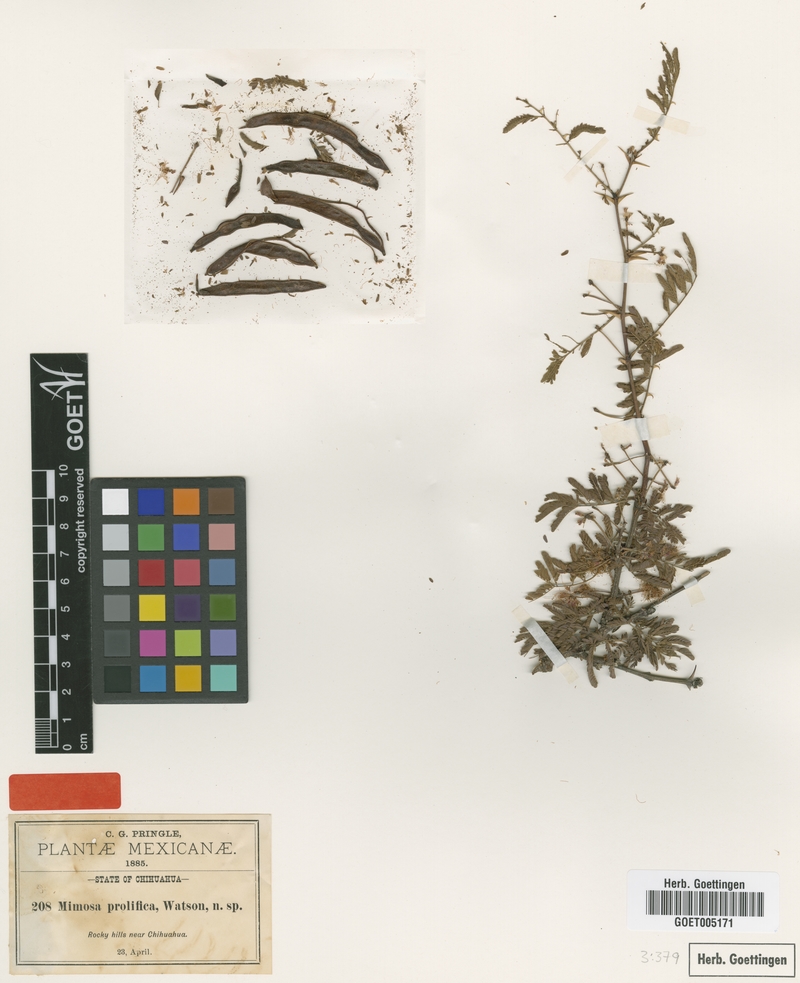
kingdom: Plantae
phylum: Tracheophyta
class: Magnoliopsida
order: Fabales
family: Fabaceae
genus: Mimosa
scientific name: Mimosa grahamii
